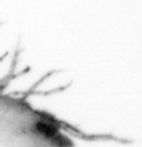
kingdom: Animalia
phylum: Arthropoda
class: Copepoda
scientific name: Copepoda
